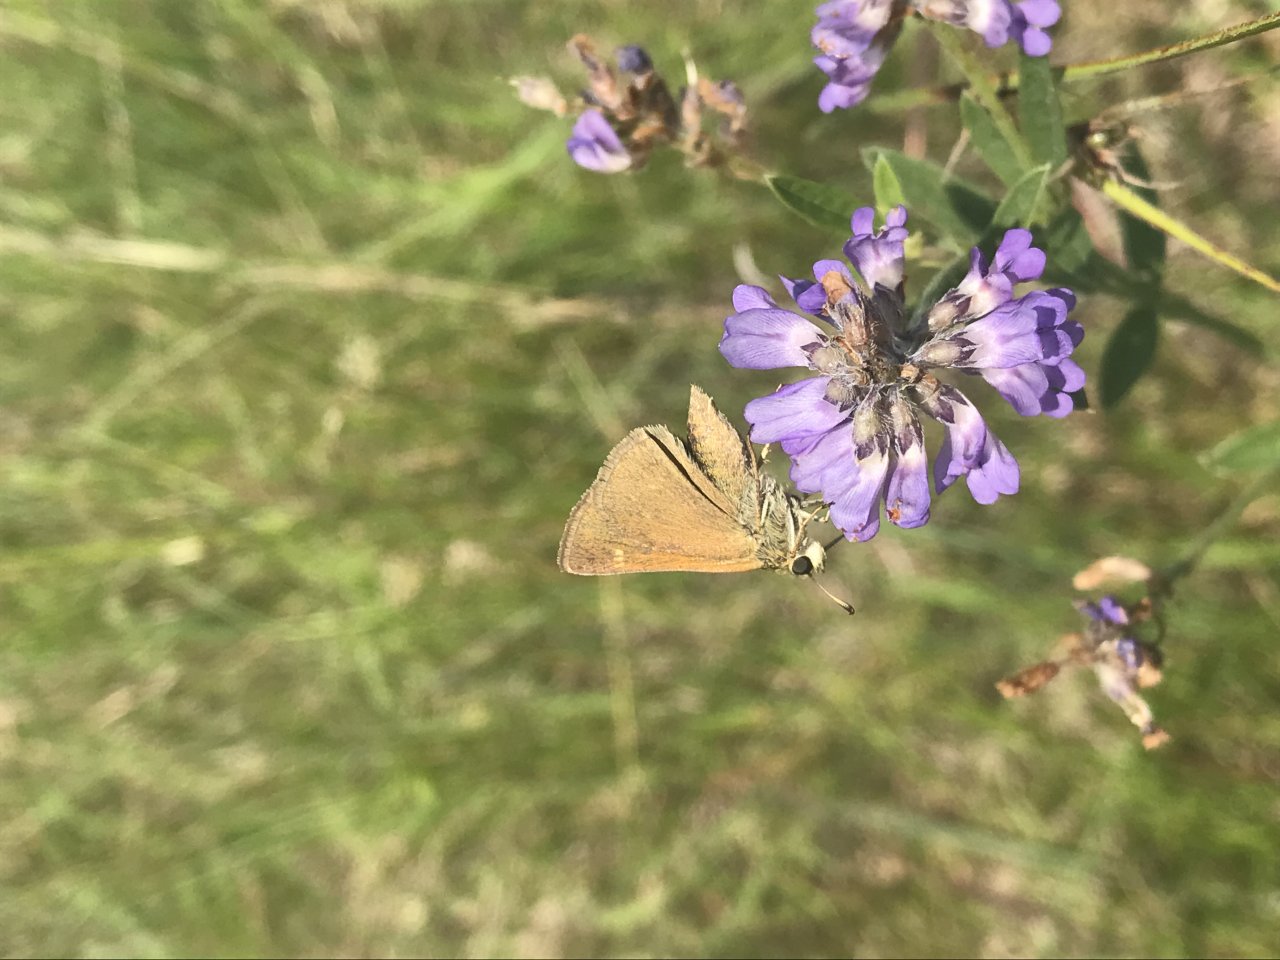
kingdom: Animalia
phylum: Arthropoda
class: Insecta
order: Lepidoptera
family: Hesperiidae
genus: Polites
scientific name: Polites themistocles
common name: Tawny-edged Skipper
